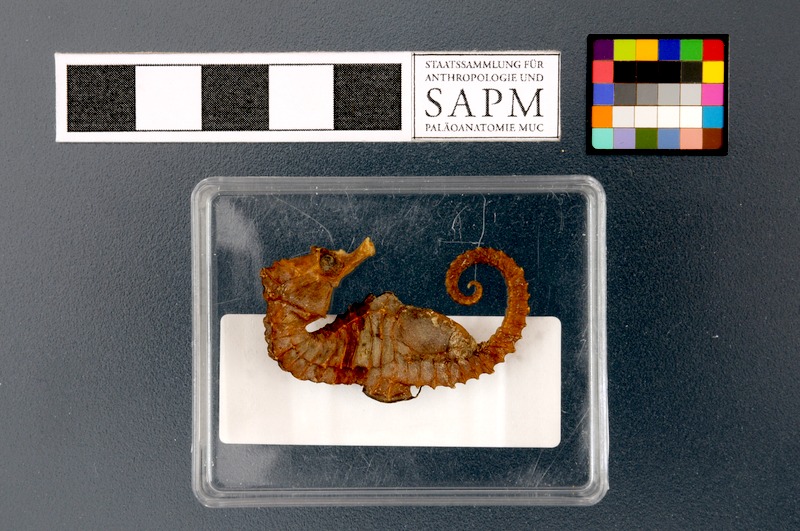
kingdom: Animalia
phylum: Chordata
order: Syngnathiformes
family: Syngnathidae
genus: Hippocampus
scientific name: Hippocampus hippocampus
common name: Short-snouted seahorse
